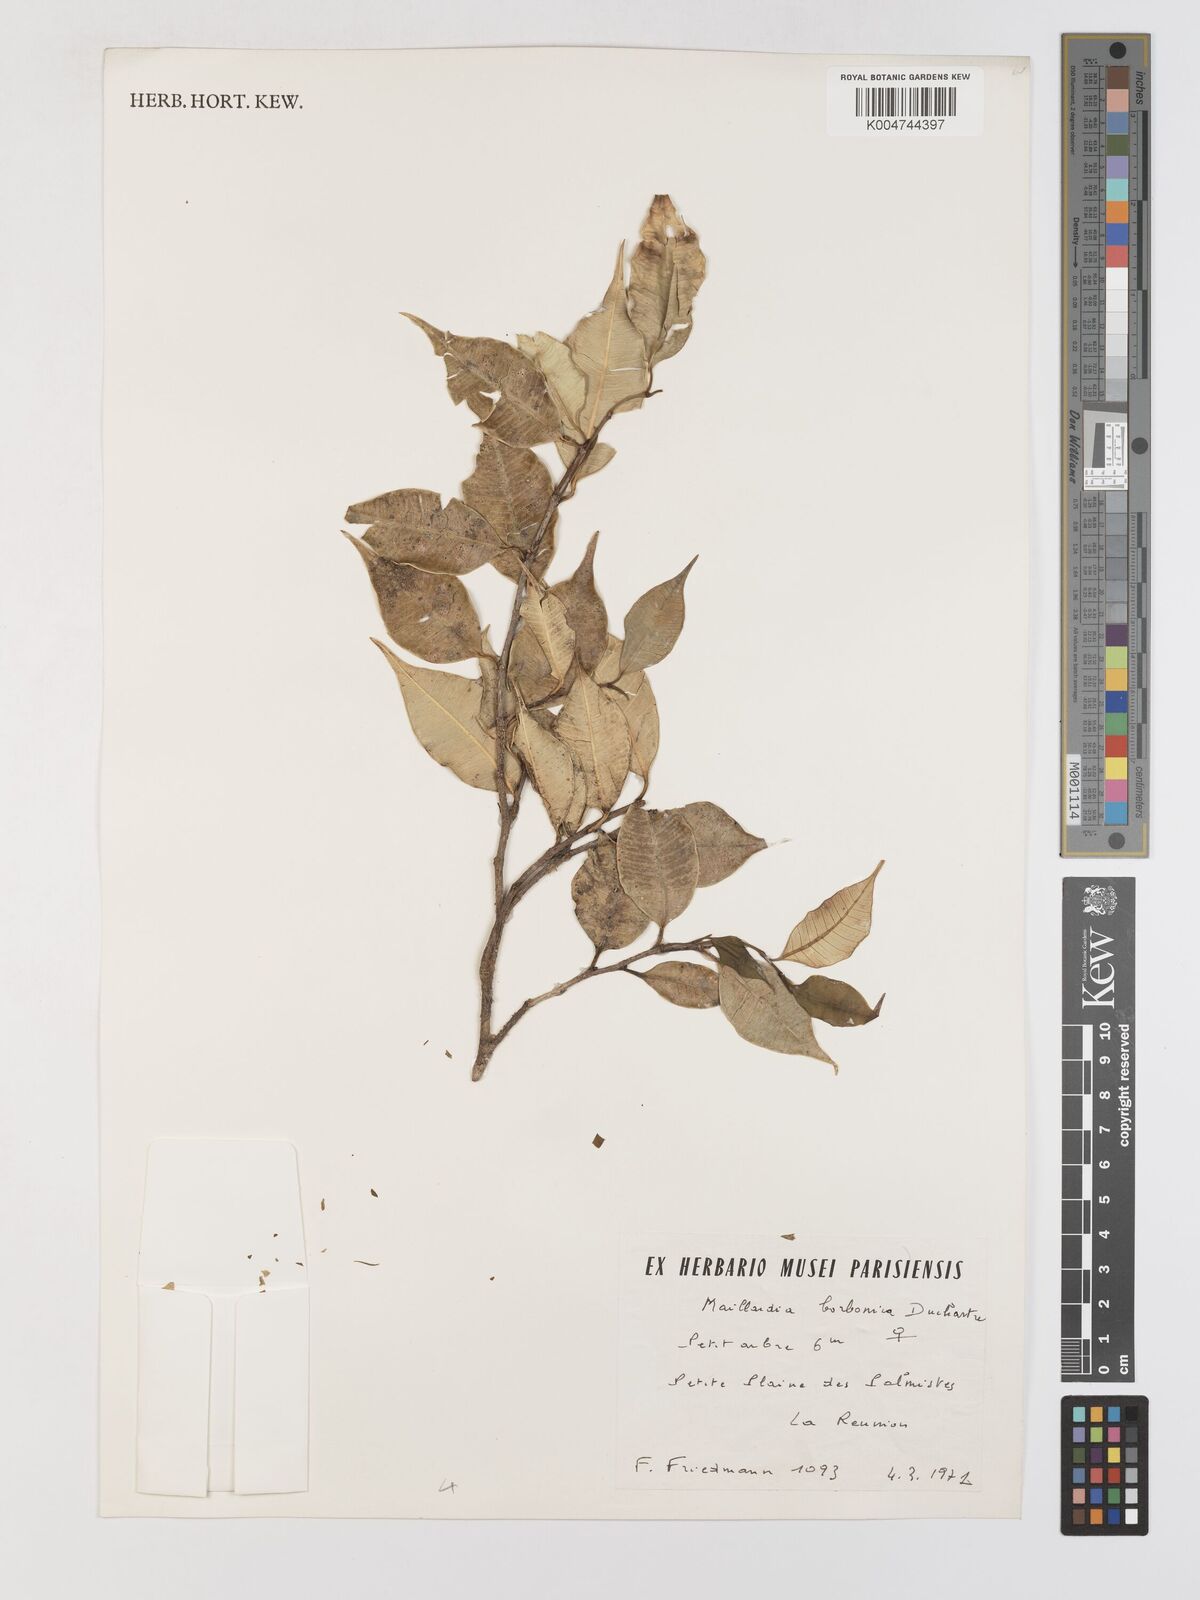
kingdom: Plantae
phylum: Tracheophyta
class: Magnoliopsida
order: Rosales
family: Moraceae
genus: Maillardia
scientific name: Maillardia borbonica
